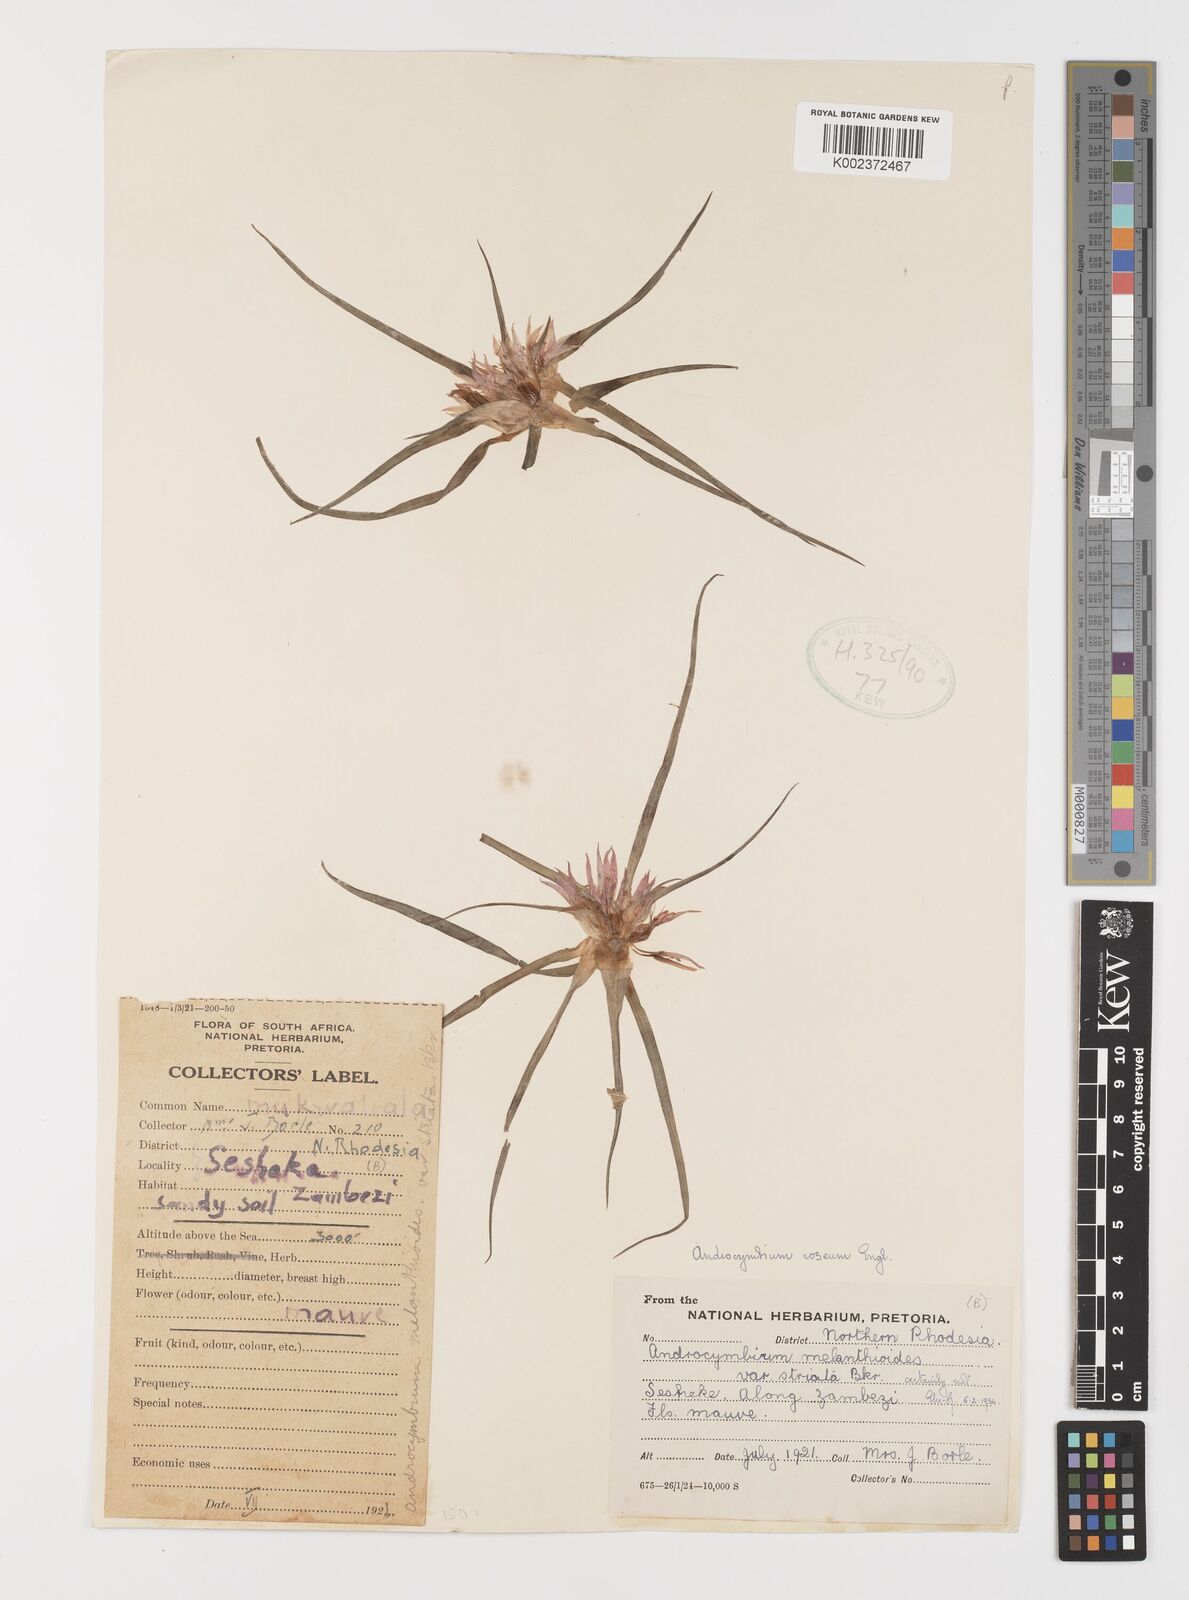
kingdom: Plantae
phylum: Tracheophyta
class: Liliopsida
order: Liliales
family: Colchicaceae
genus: Colchicum
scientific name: Colchicum roseum
